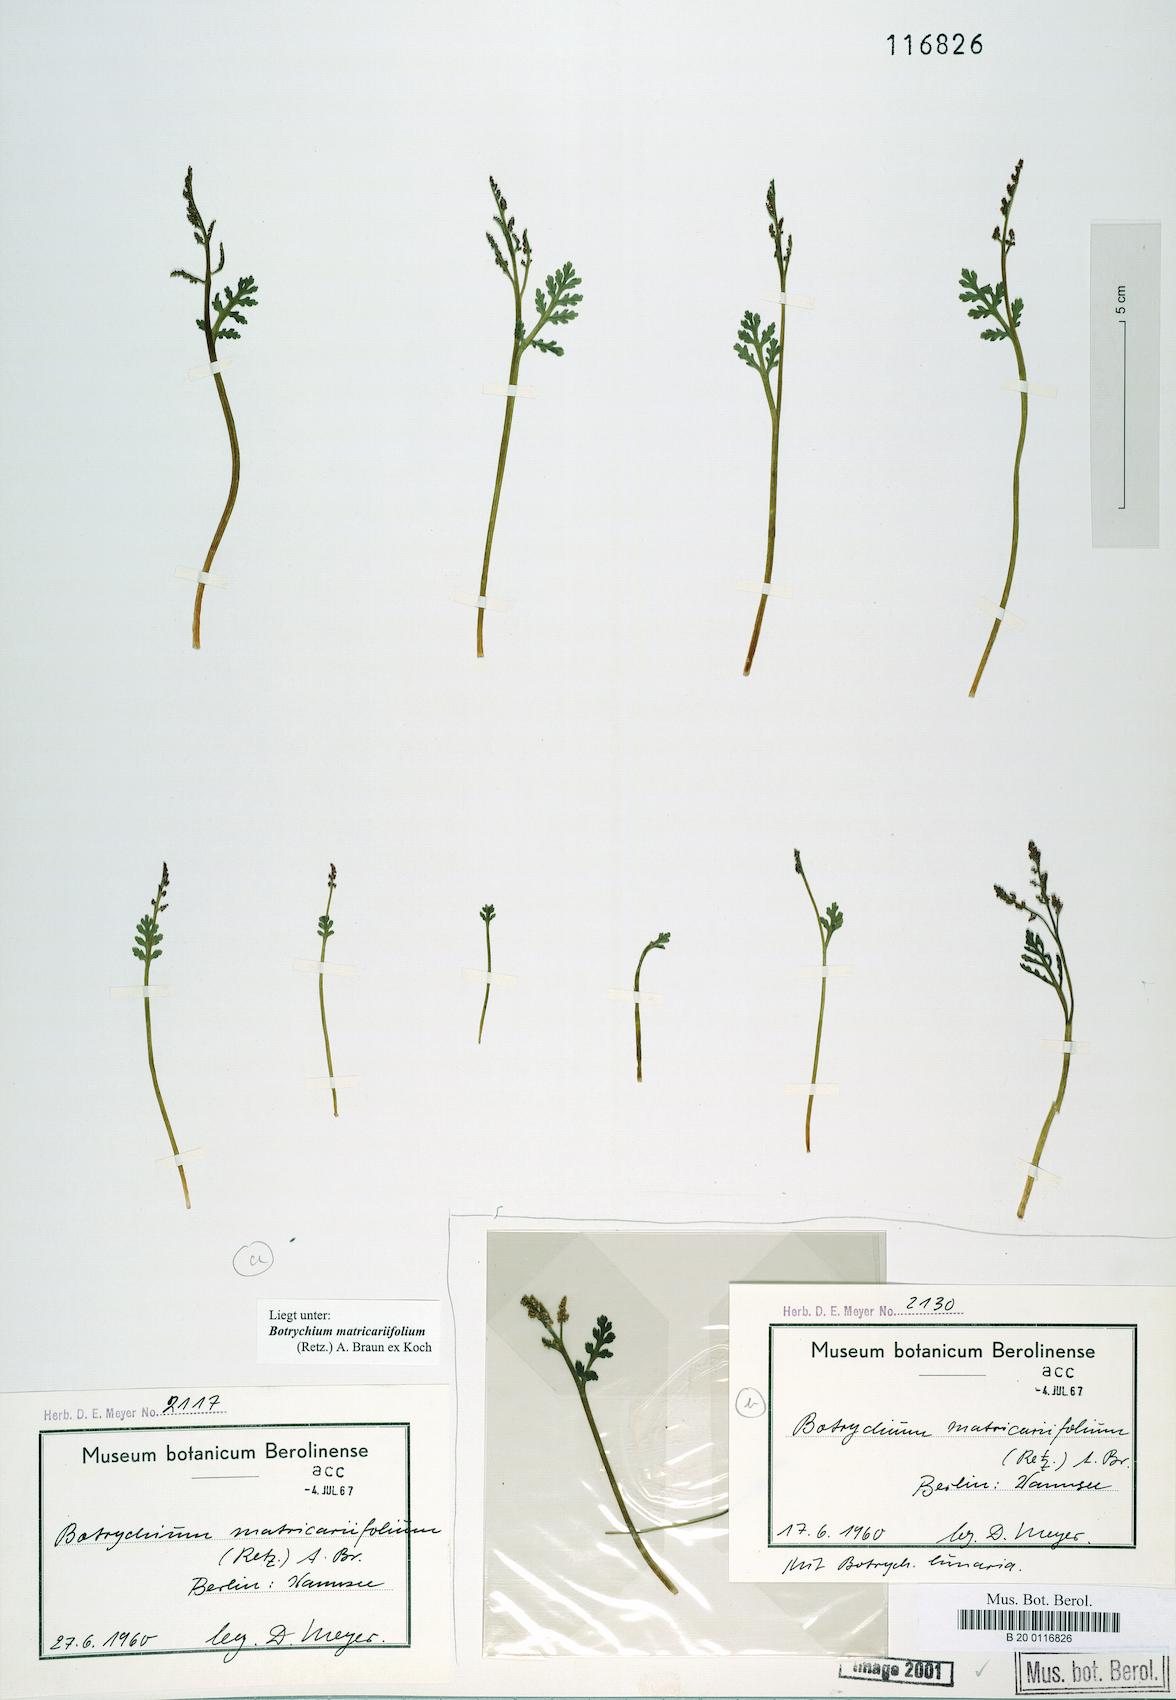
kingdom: Plantae
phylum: Tracheophyta
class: Polypodiopsida
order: Ophioglossales
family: Ophioglossaceae
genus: Botrychium
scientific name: Botrychium matricariifolium
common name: Branched moonwort
